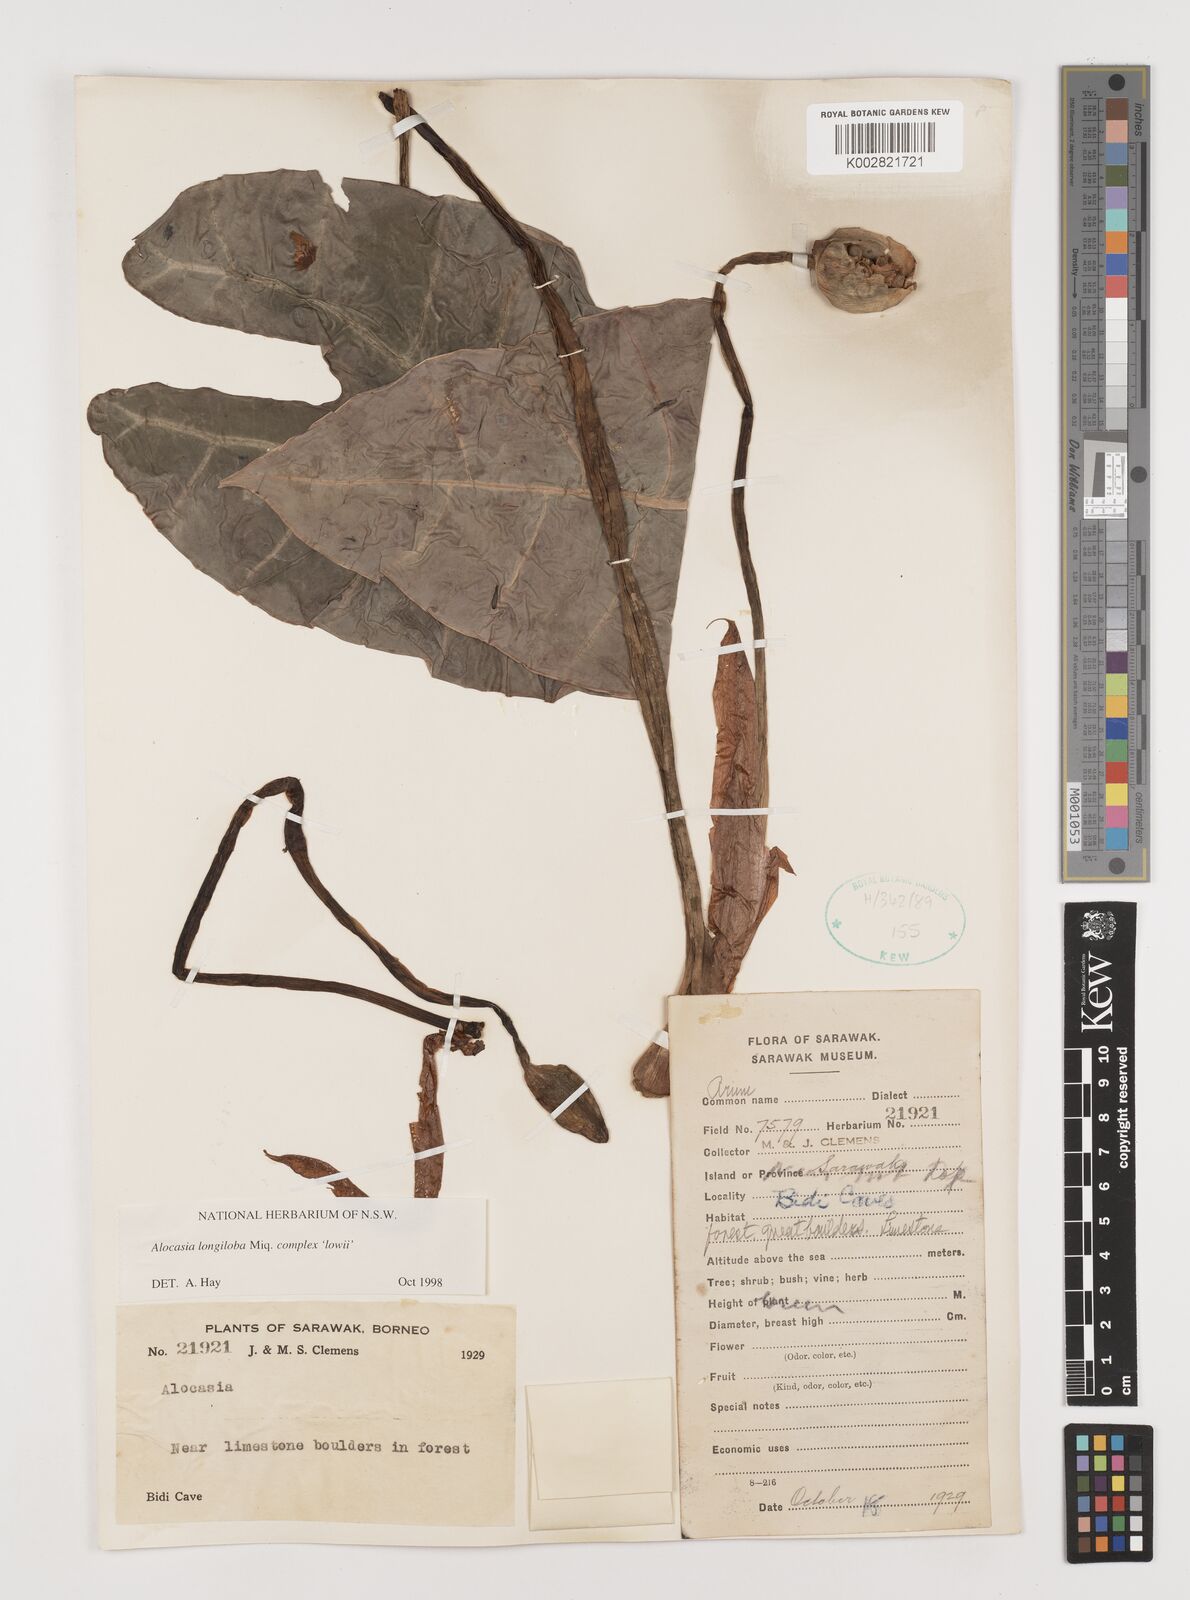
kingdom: Plantae
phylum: Tracheophyta
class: Liliopsida
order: Alismatales
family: Araceae
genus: Alocasia
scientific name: Alocasia longiloba
